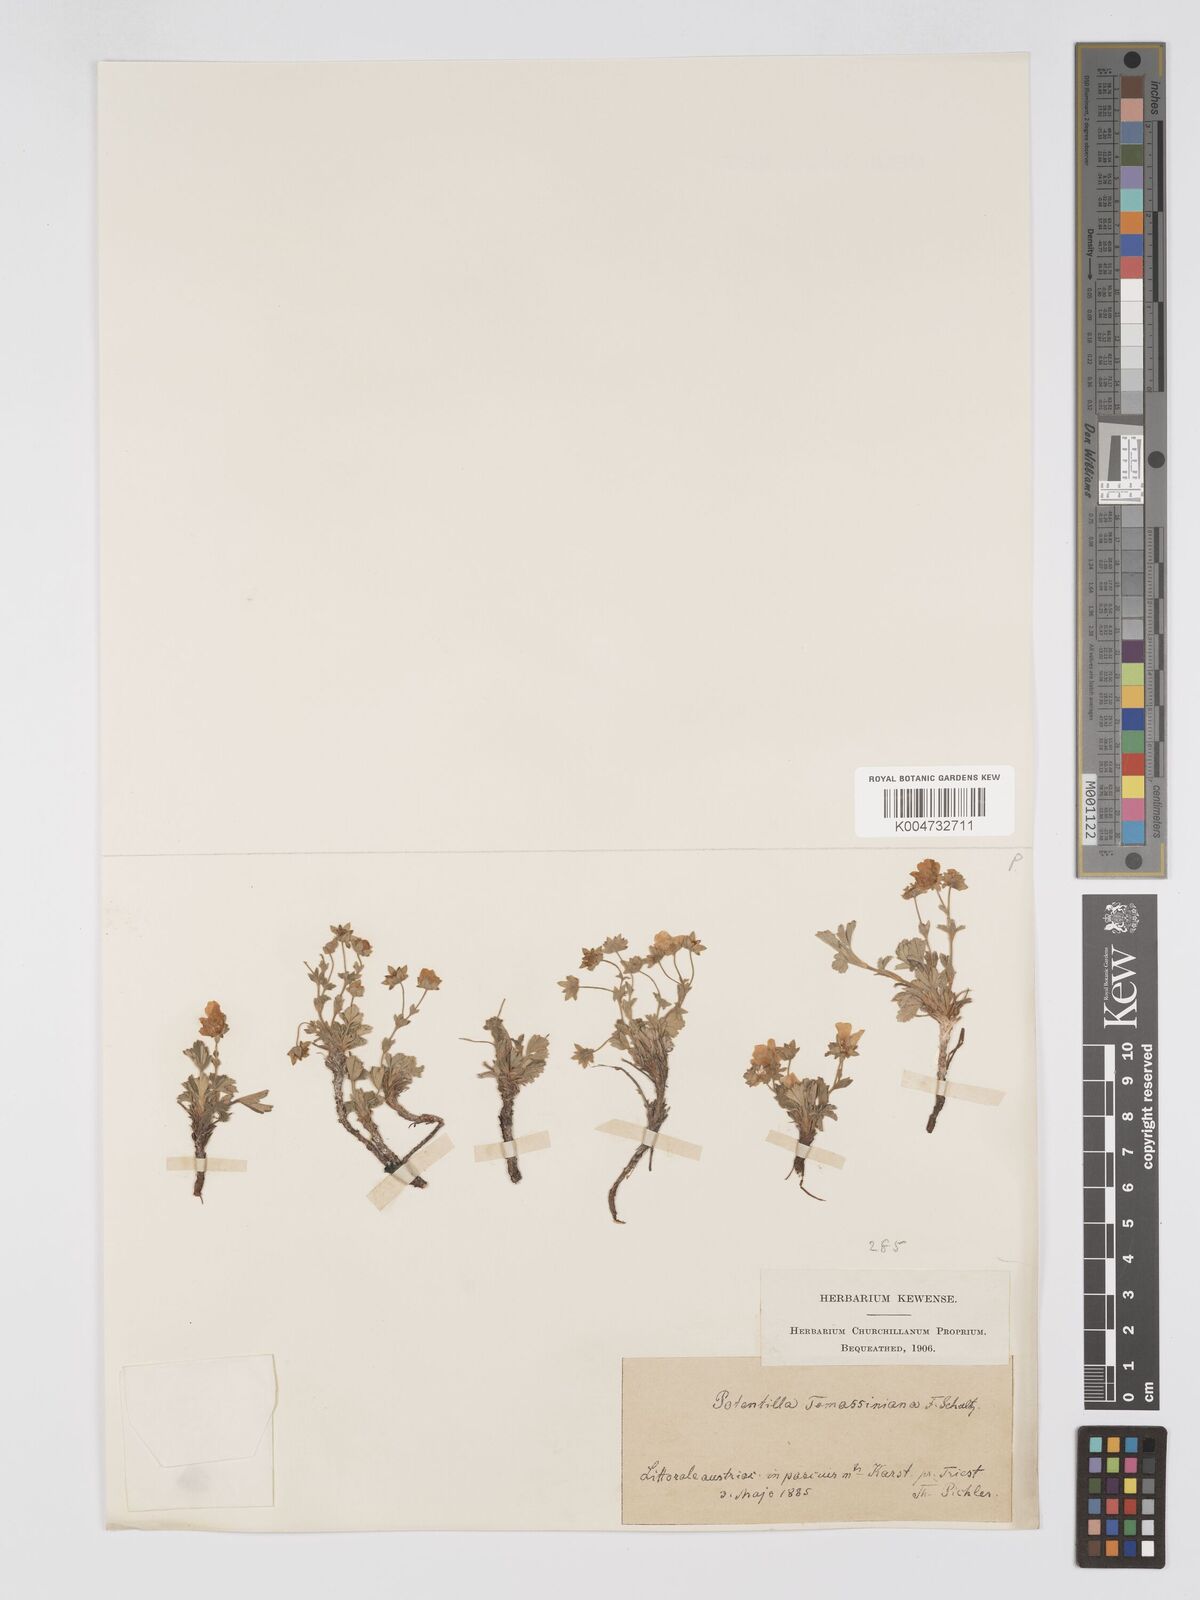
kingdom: Plantae
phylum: Tracheophyta
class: Magnoliopsida
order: Rosales
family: Rosaceae
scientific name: Rosaceae
